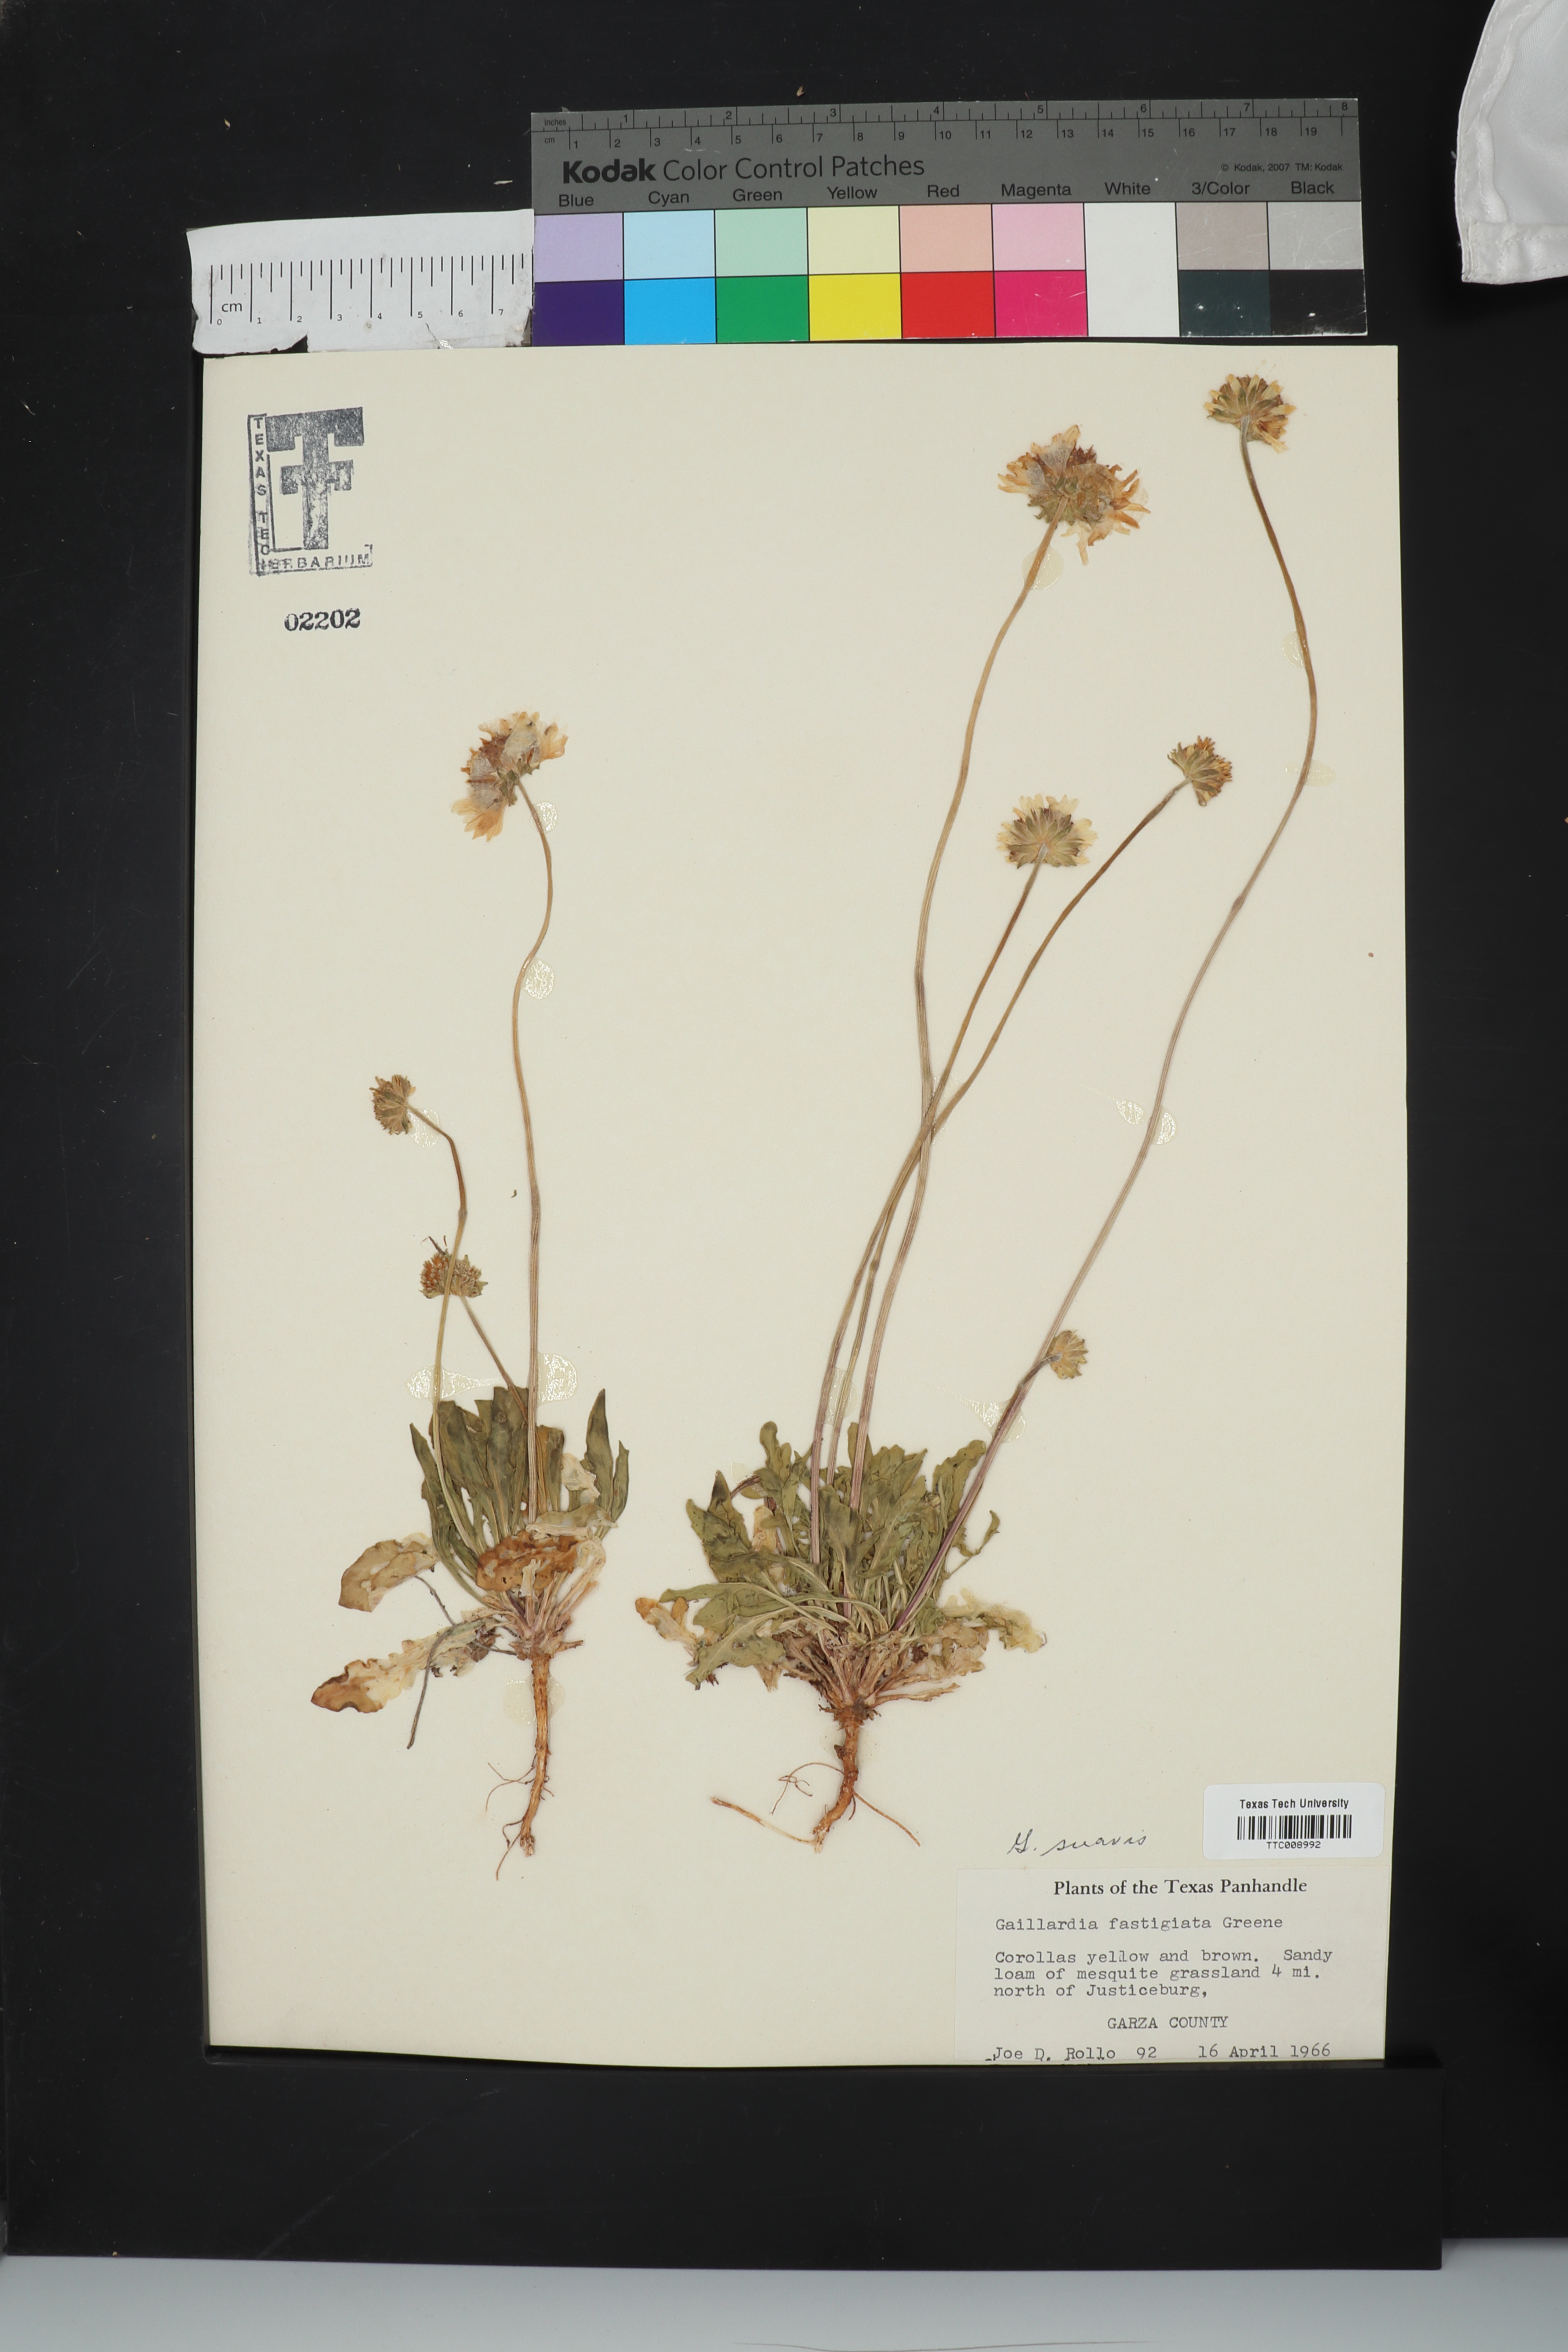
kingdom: Plantae
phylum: Tracheophyta
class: Magnoliopsida
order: Asterales
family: Asteraceae
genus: Gaillardia
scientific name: Gaillardia suavis
